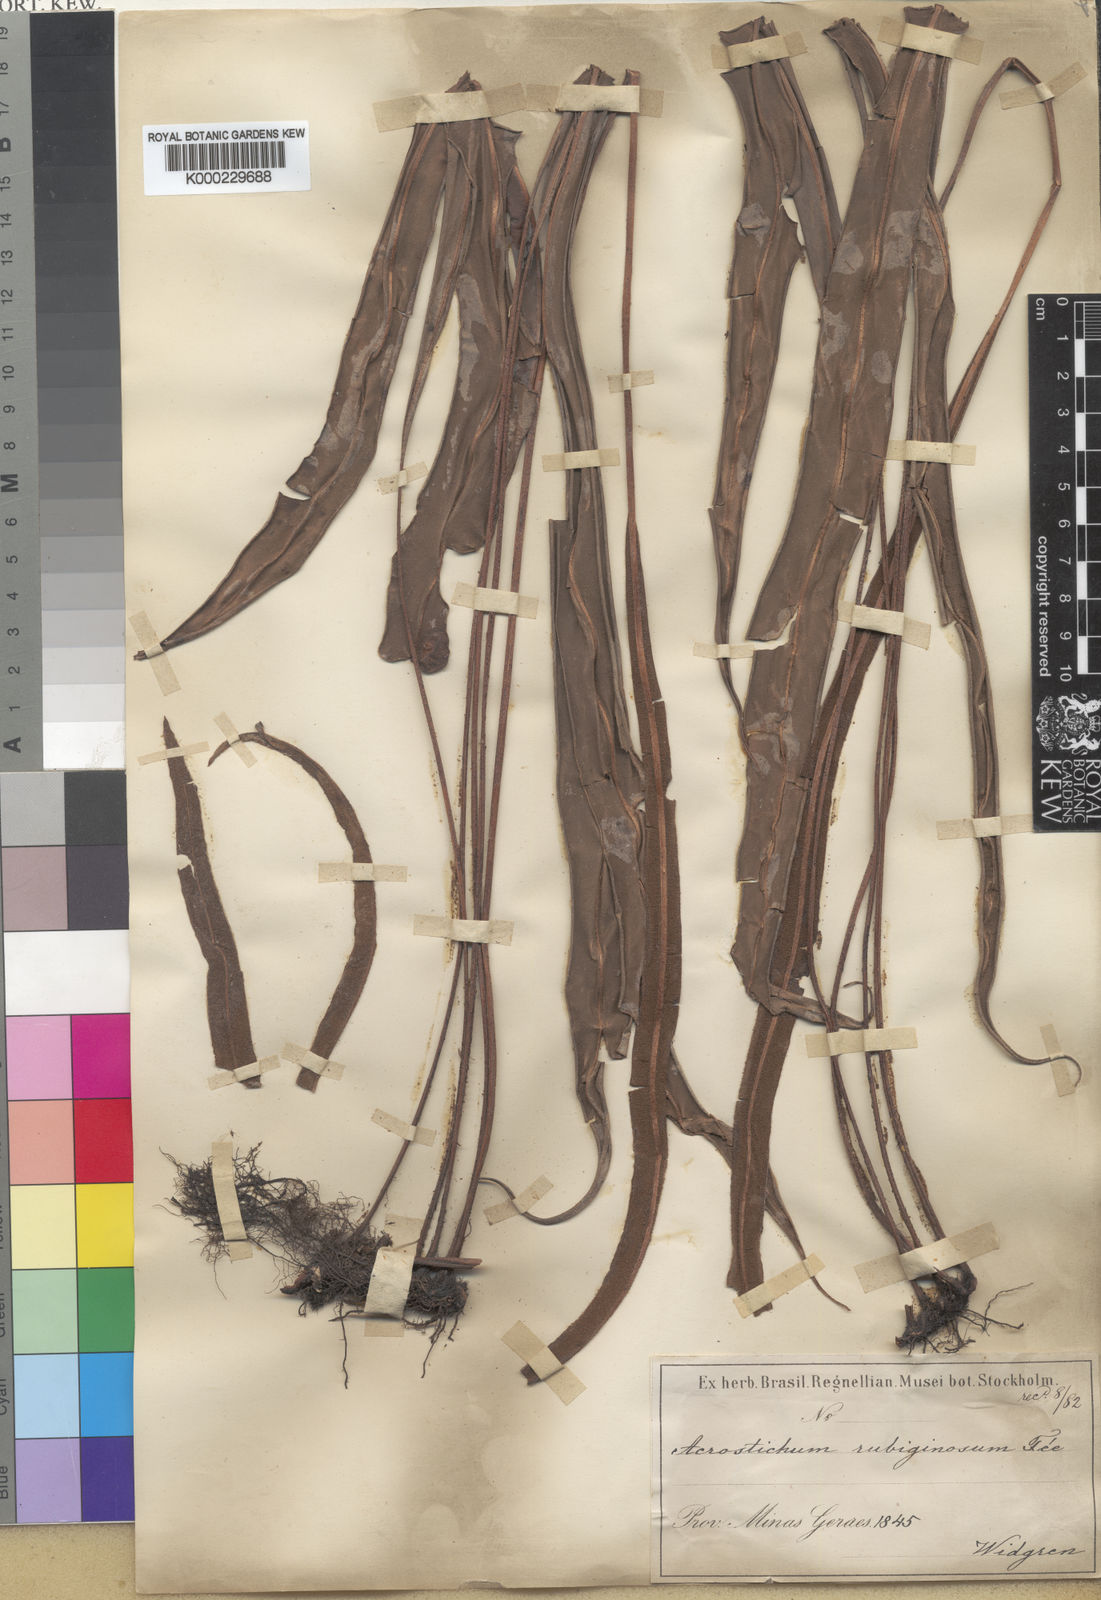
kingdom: Plantae
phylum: Tracheophyta
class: Polypodiopsida
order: Polypodiales
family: Dryopteridaceae
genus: Elaphoglossum
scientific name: Elaphoglossum perelegans
